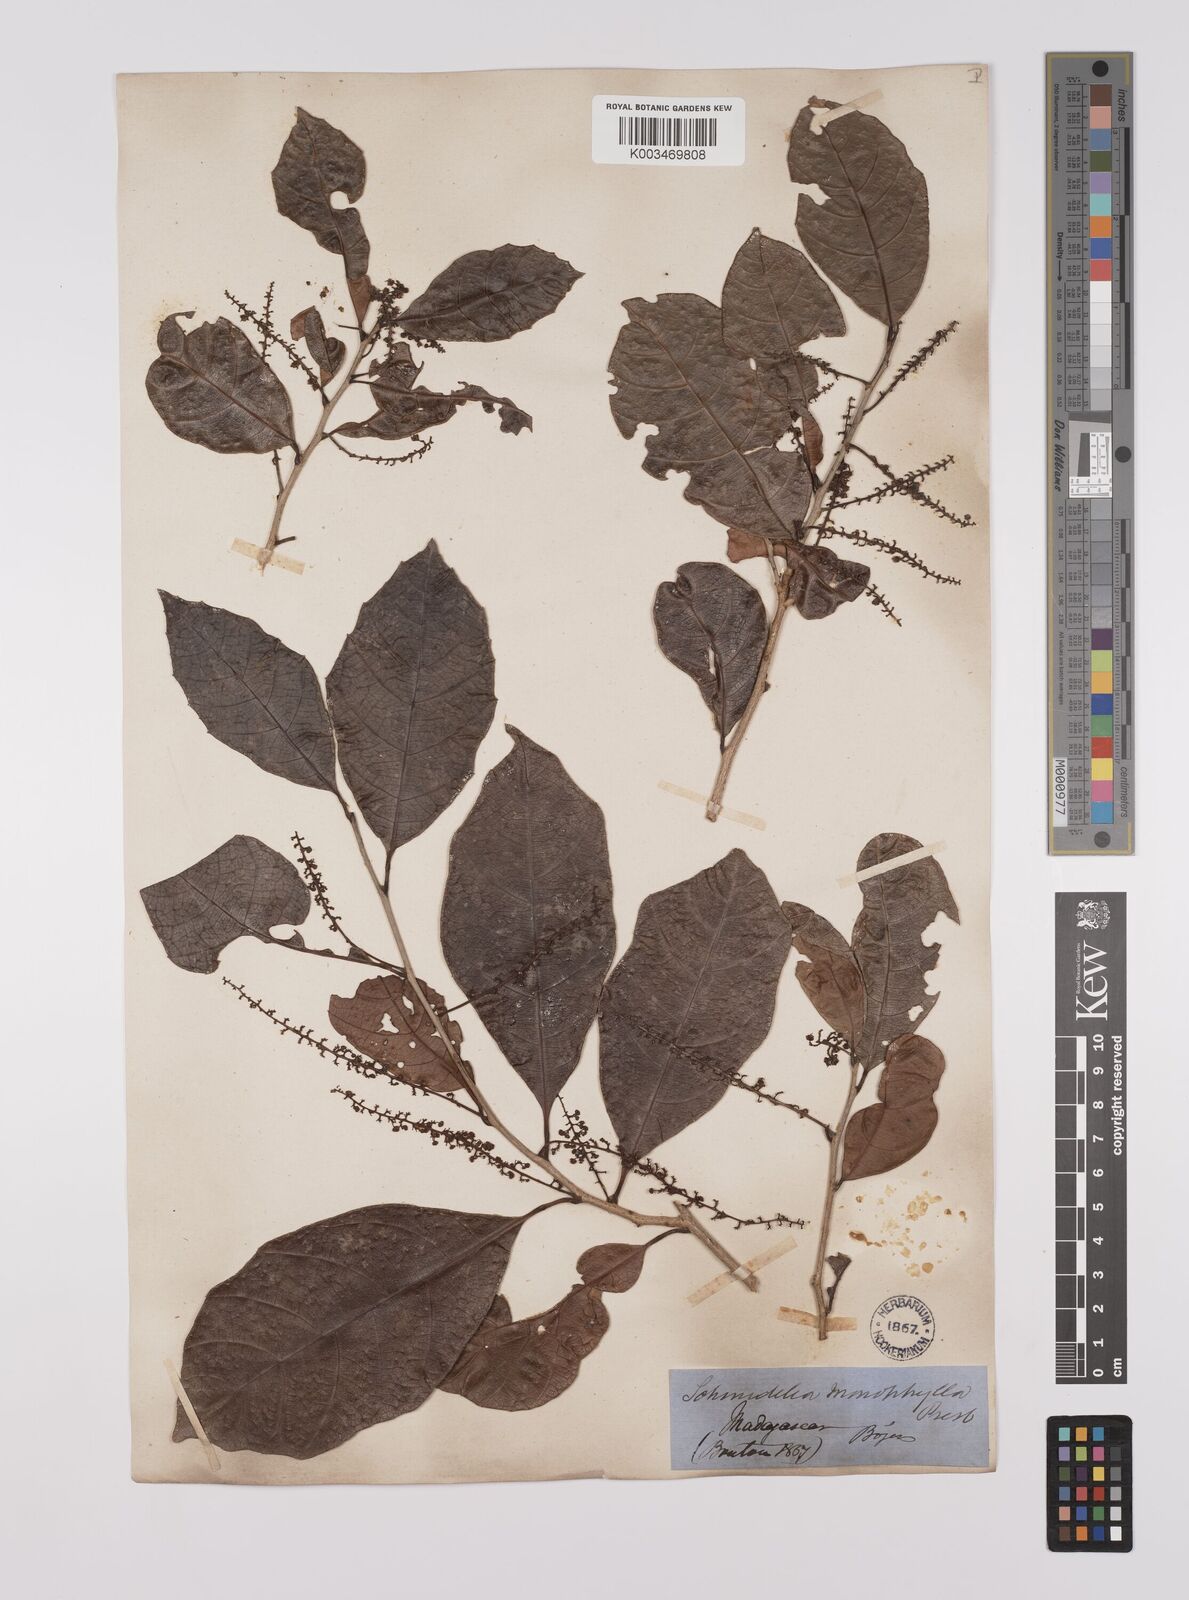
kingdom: Plantae
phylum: Tracheophyta
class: Magnoliopsida
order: Sapindales
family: Sapindaceae
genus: Allophylus
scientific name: Allophylus pervillei
